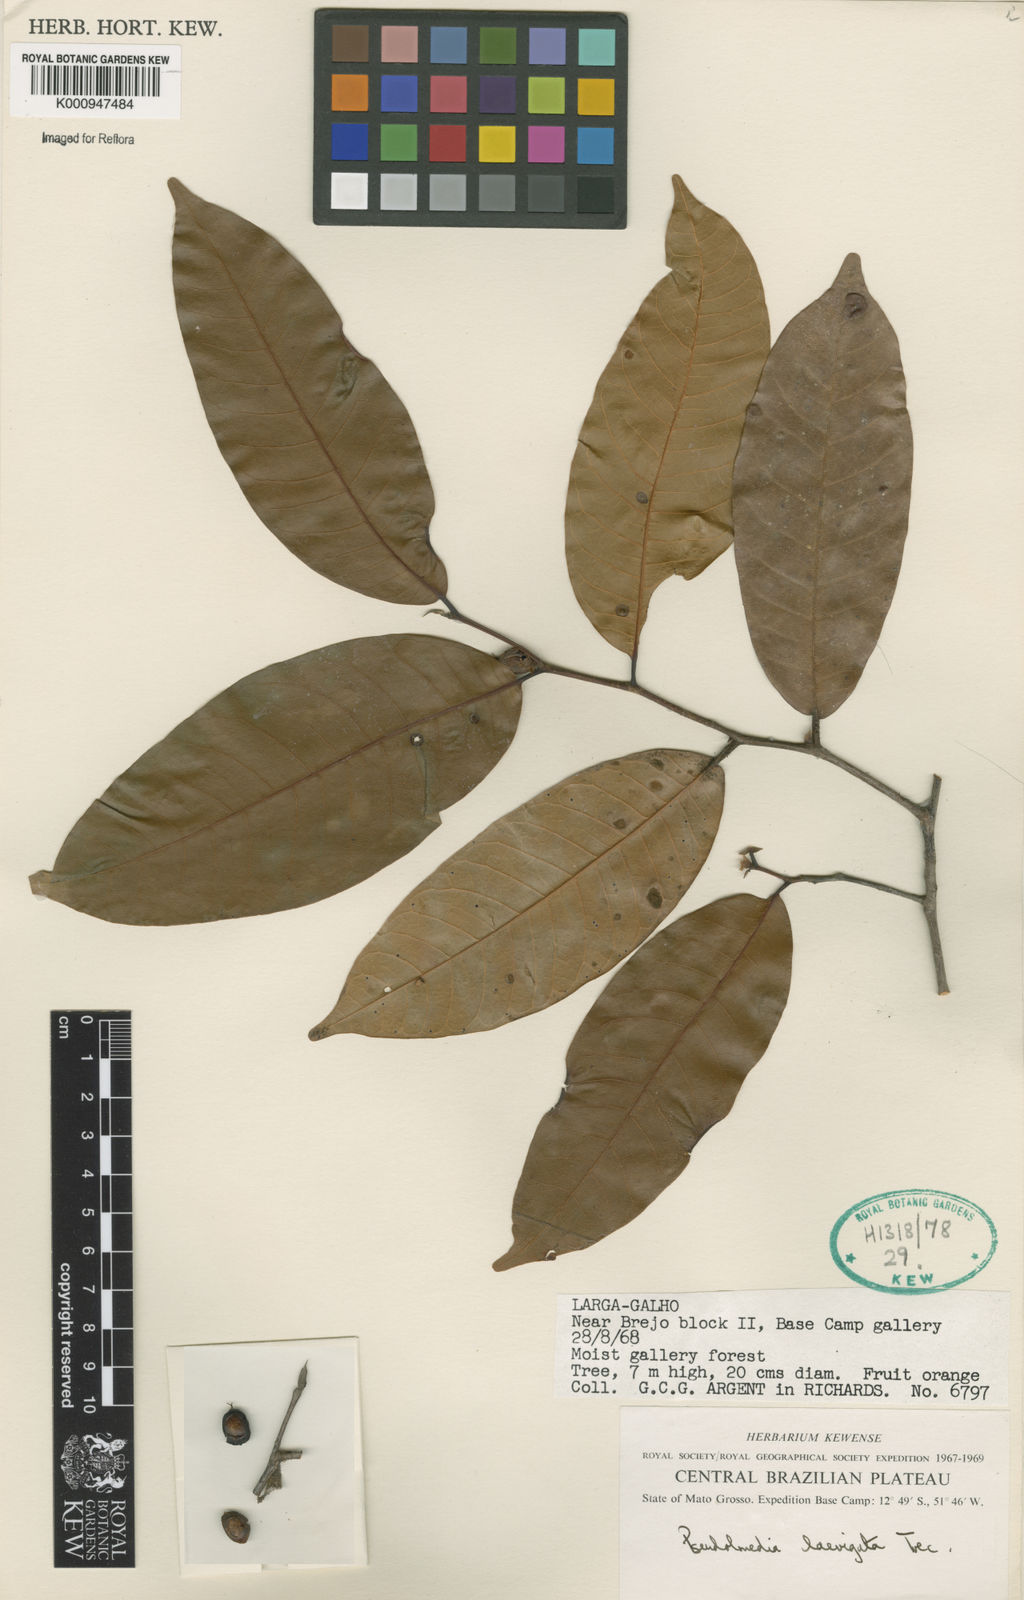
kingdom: Plantae
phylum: Tracheophyta
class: Magnoliopsida
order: Rosales
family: Moraceae
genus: Pseudolmedia
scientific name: Pseudolmedia
